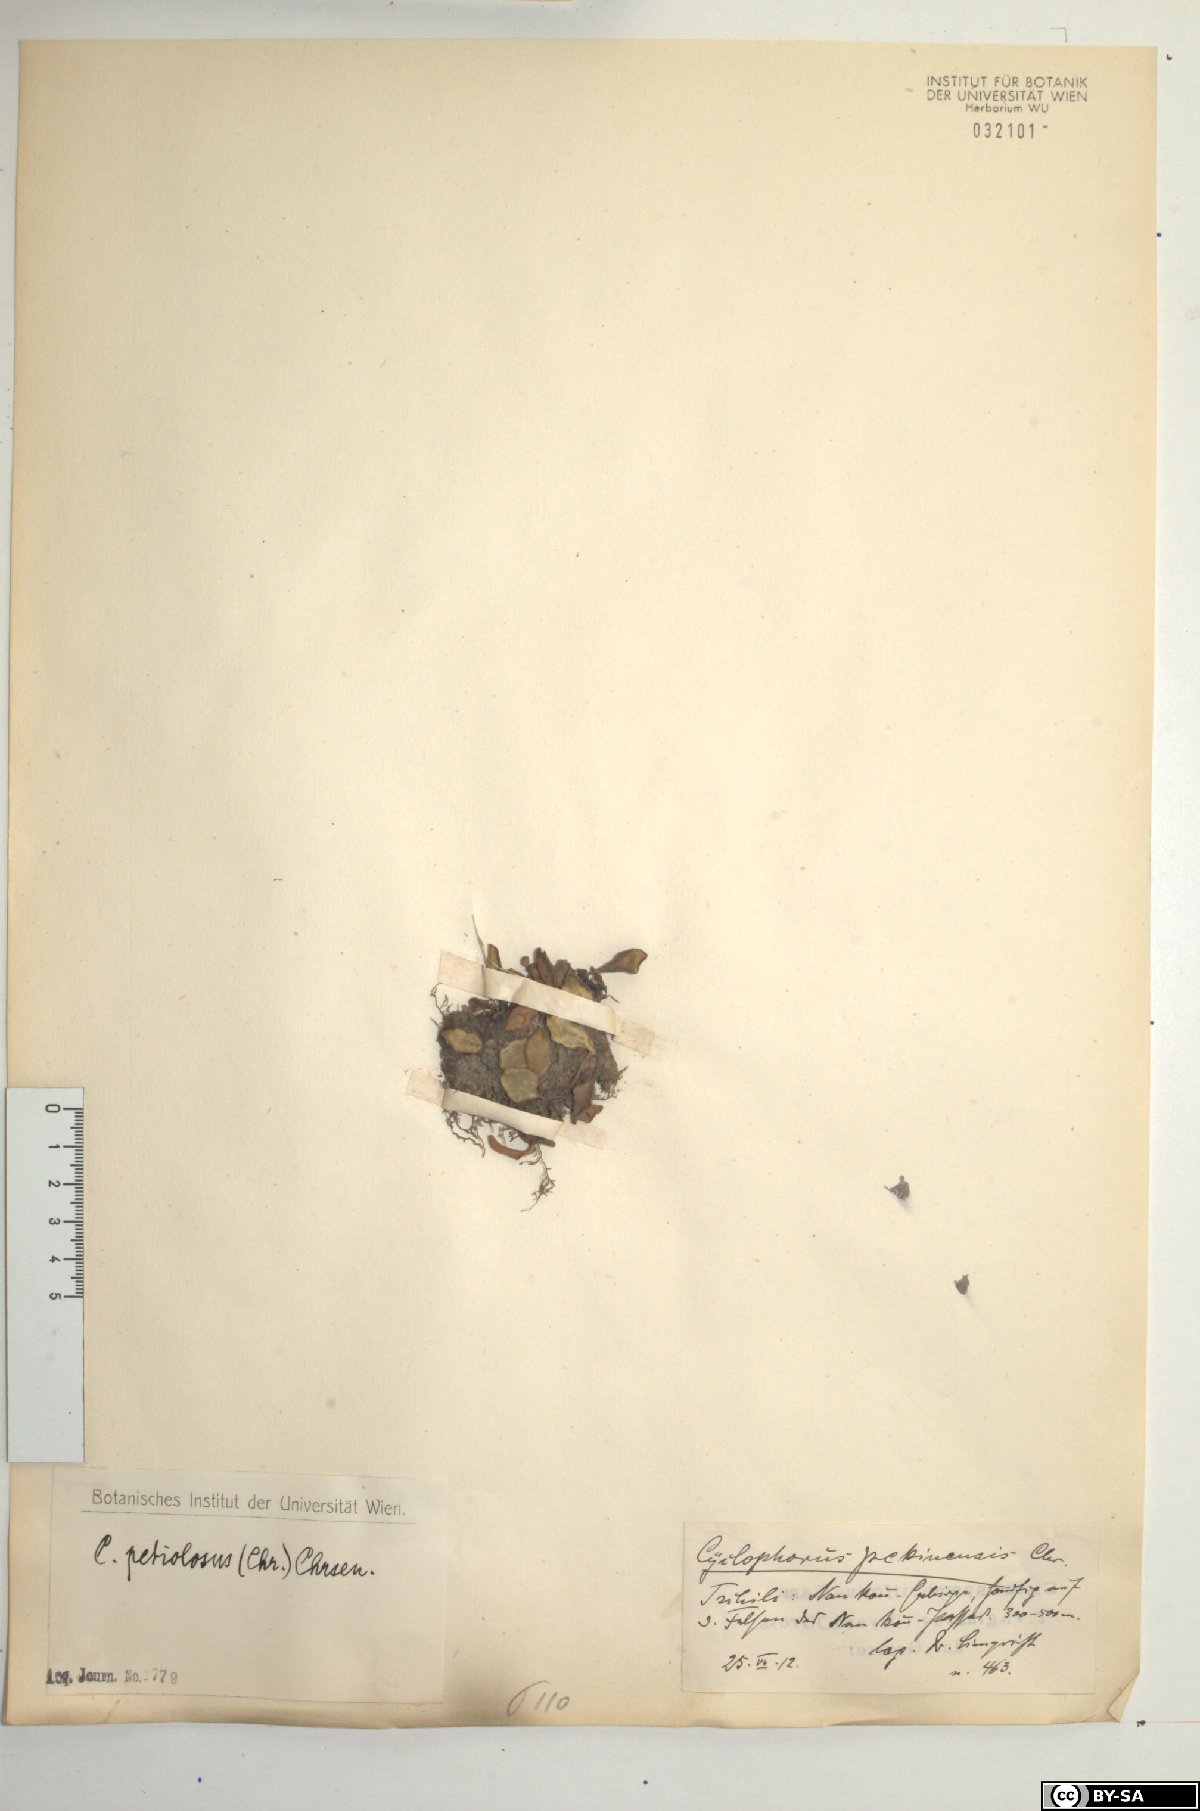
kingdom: Plantae
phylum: Tracheophyta
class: Polypodiopsida
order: Polypodiales
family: Polypodiaceae
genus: Pyrrosia
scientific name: Pyrrosia petiolosa
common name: Pyrrosia
